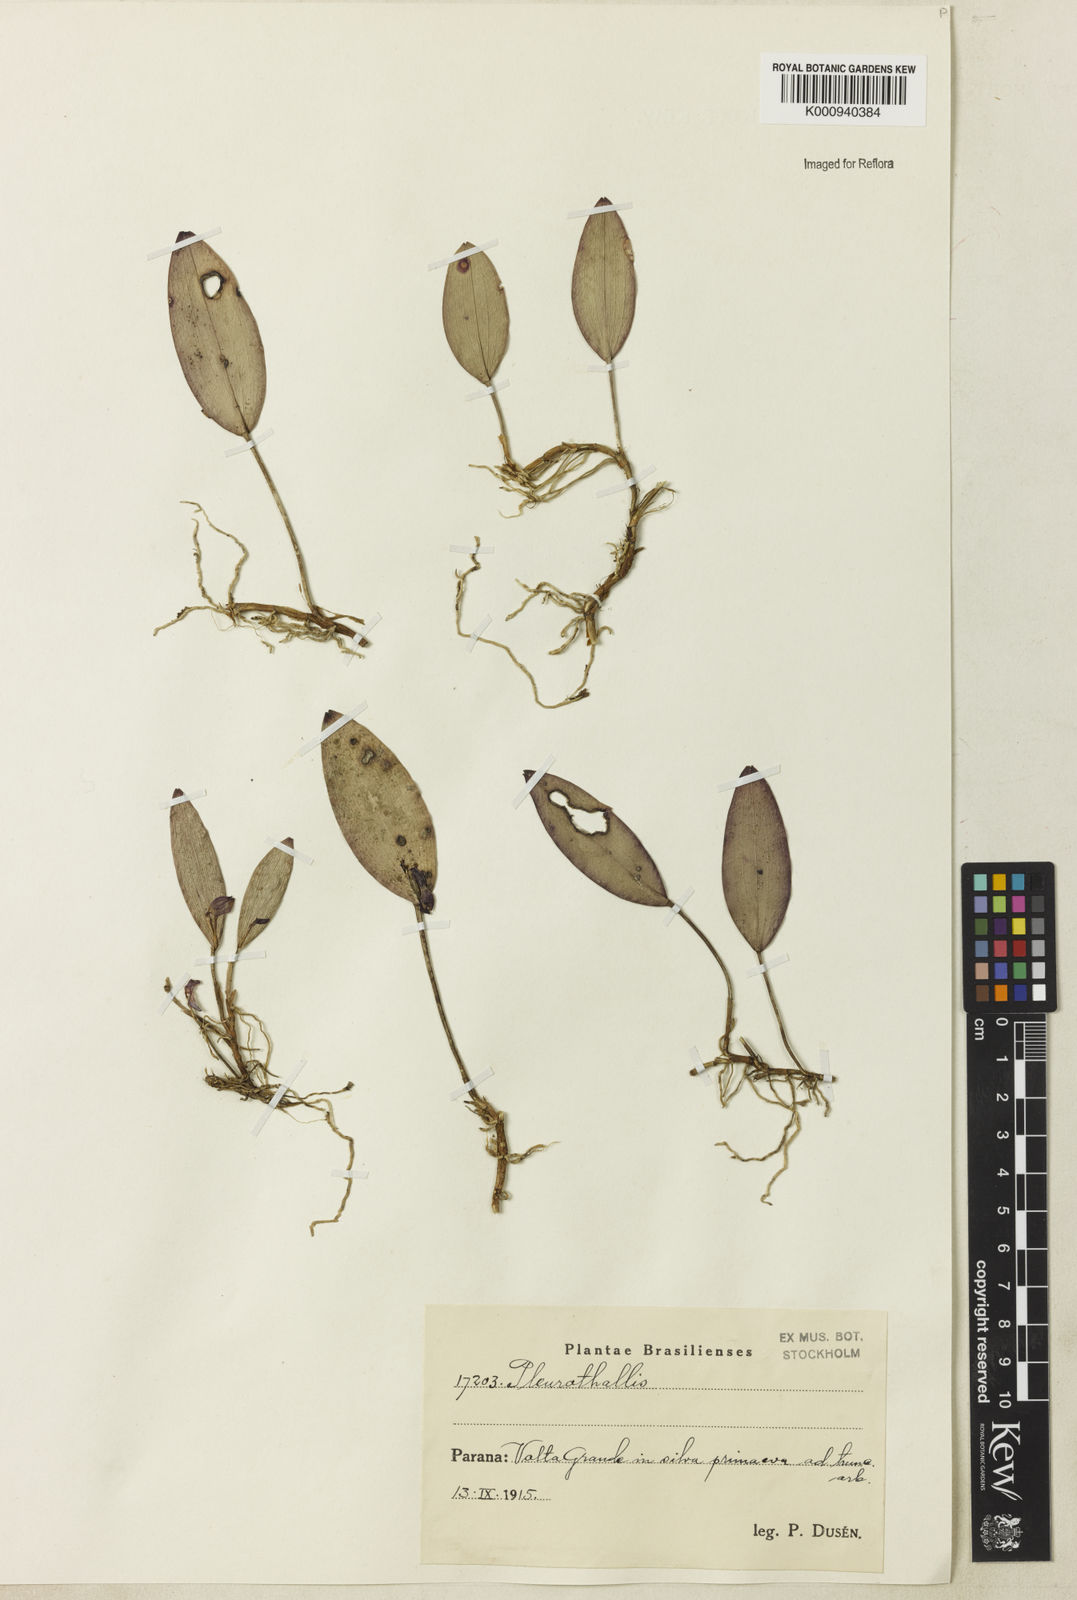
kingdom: Plantae
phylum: Tracheophyta
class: Liliopsida
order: Asparagales
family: Orchidaceae
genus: Pleurothallis
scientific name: Pleurothallis
